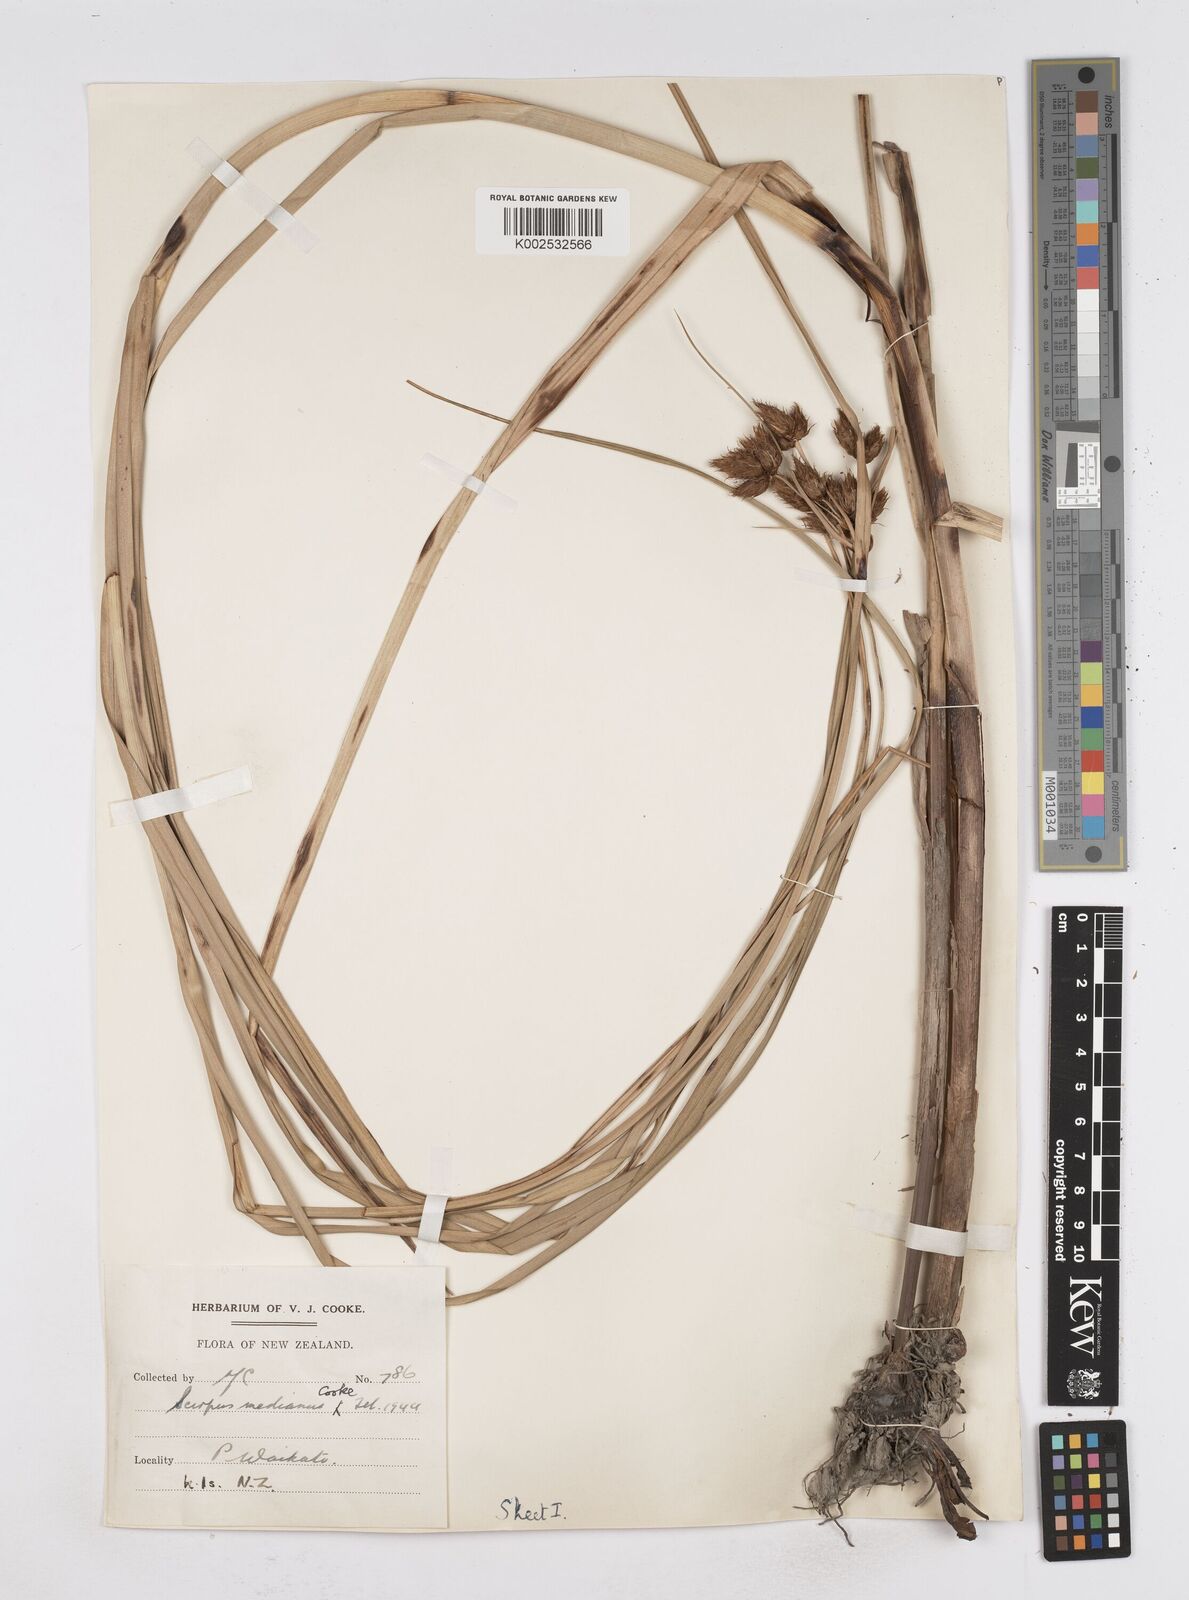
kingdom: Plantae
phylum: Tracheophyta
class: Liliopsida
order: Poales
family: Cyperaceae
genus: Bolboschoenus
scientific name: Bolboschoenus medianus
